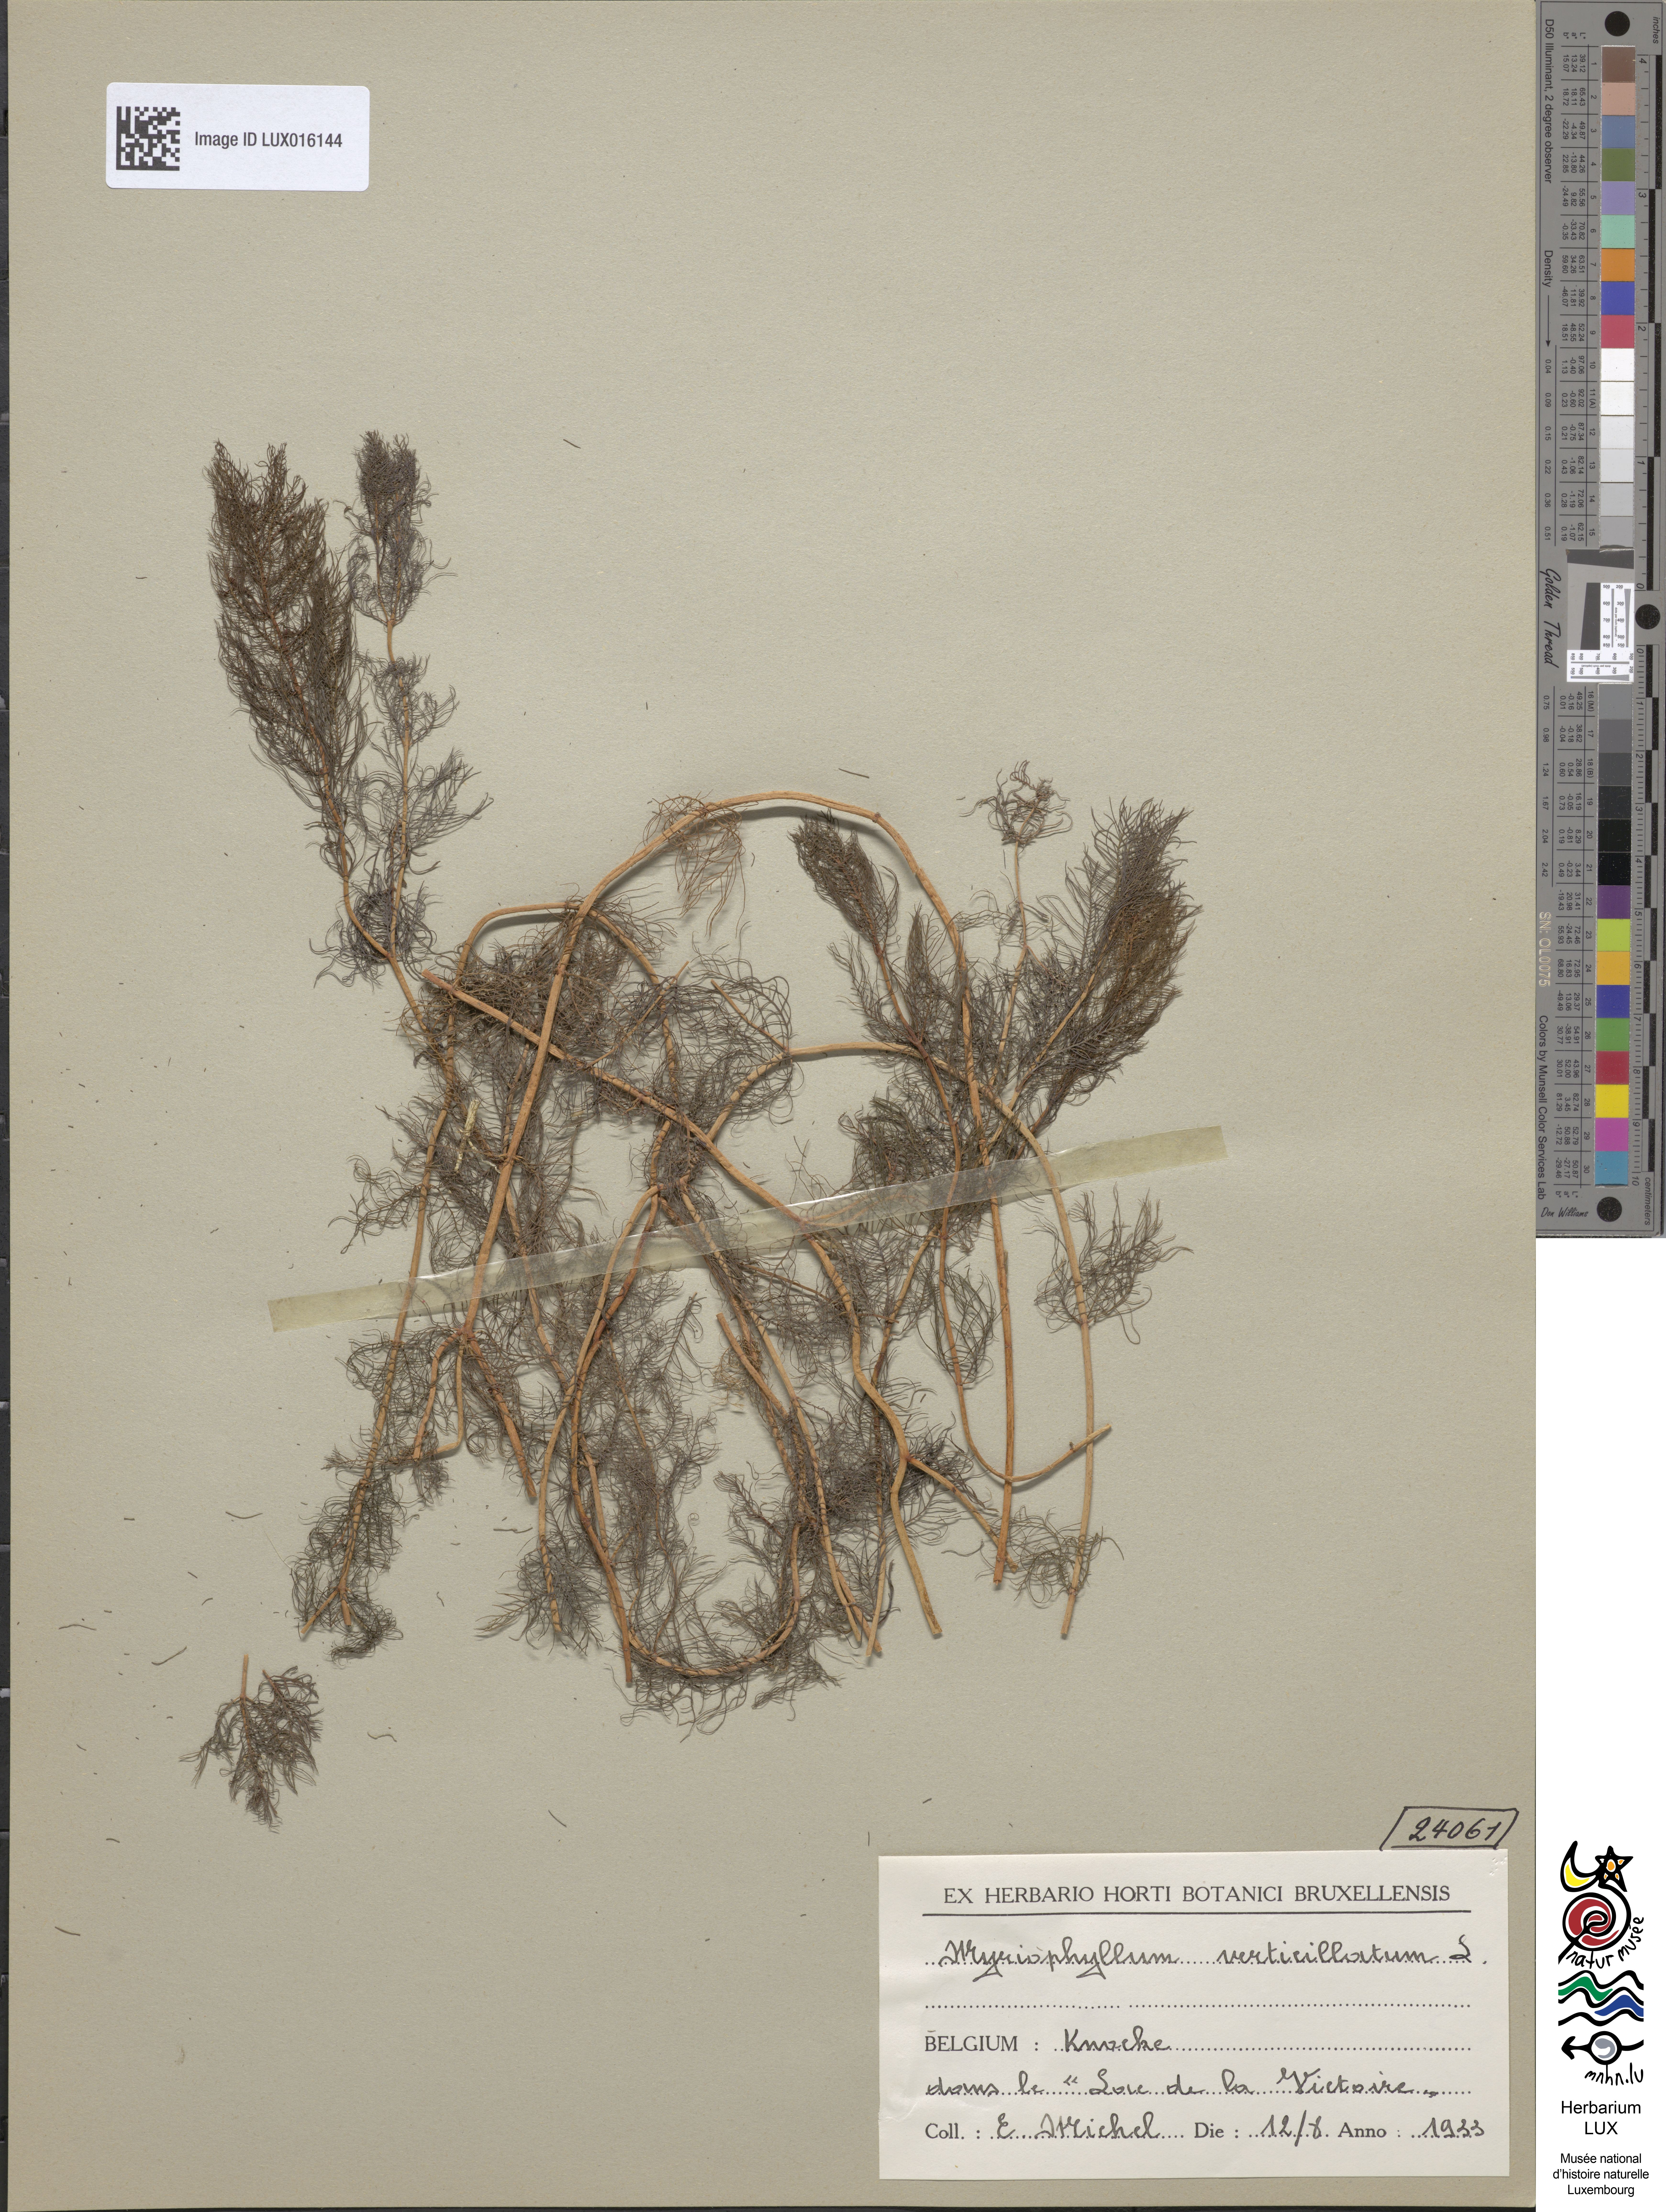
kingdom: Plantae
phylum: Tracheophyta
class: Magnoliopsida
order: Saxifragales
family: Haloragaceae
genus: Myriophyllum
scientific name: Myriophyllum verticillatum
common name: Whorled water-milfoil
